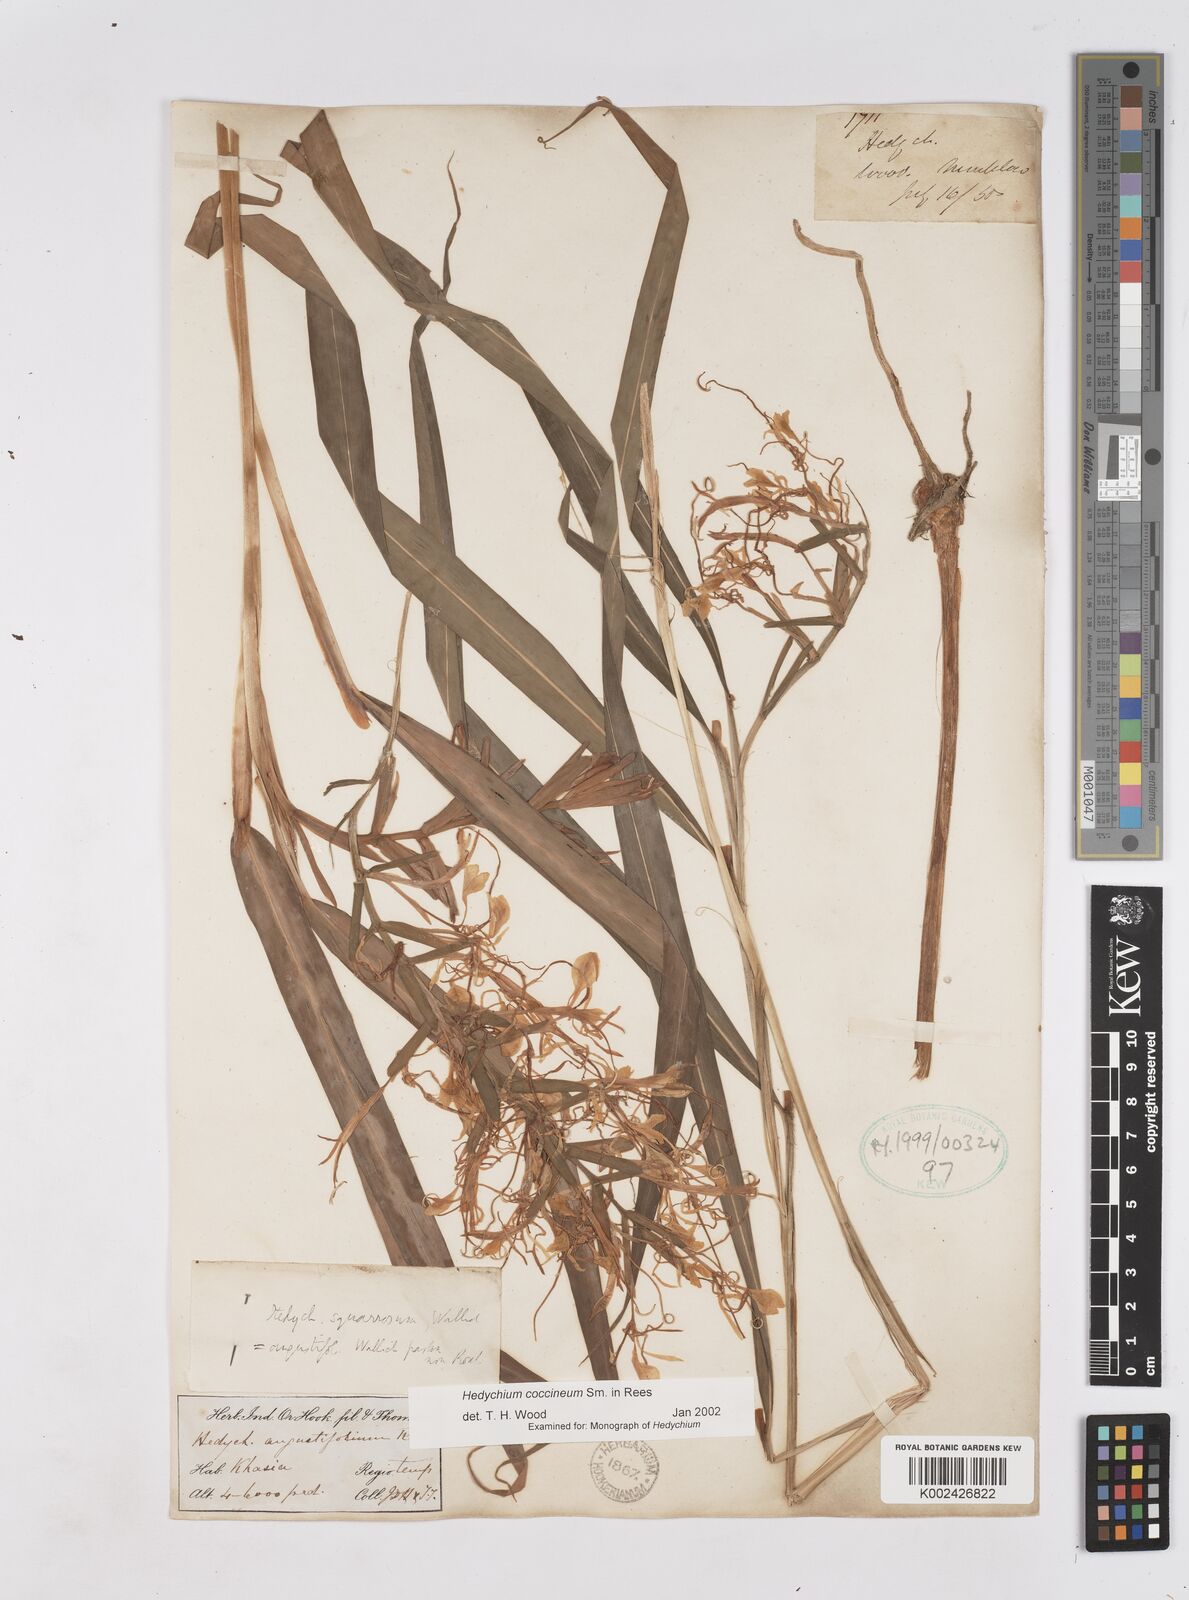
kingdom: Plantae
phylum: Tracheophyta
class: Liliopsida
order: Zingiberales
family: Zingiberaceae
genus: Hedychium
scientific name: Hedychium coccineum
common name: Red ginger-lily
